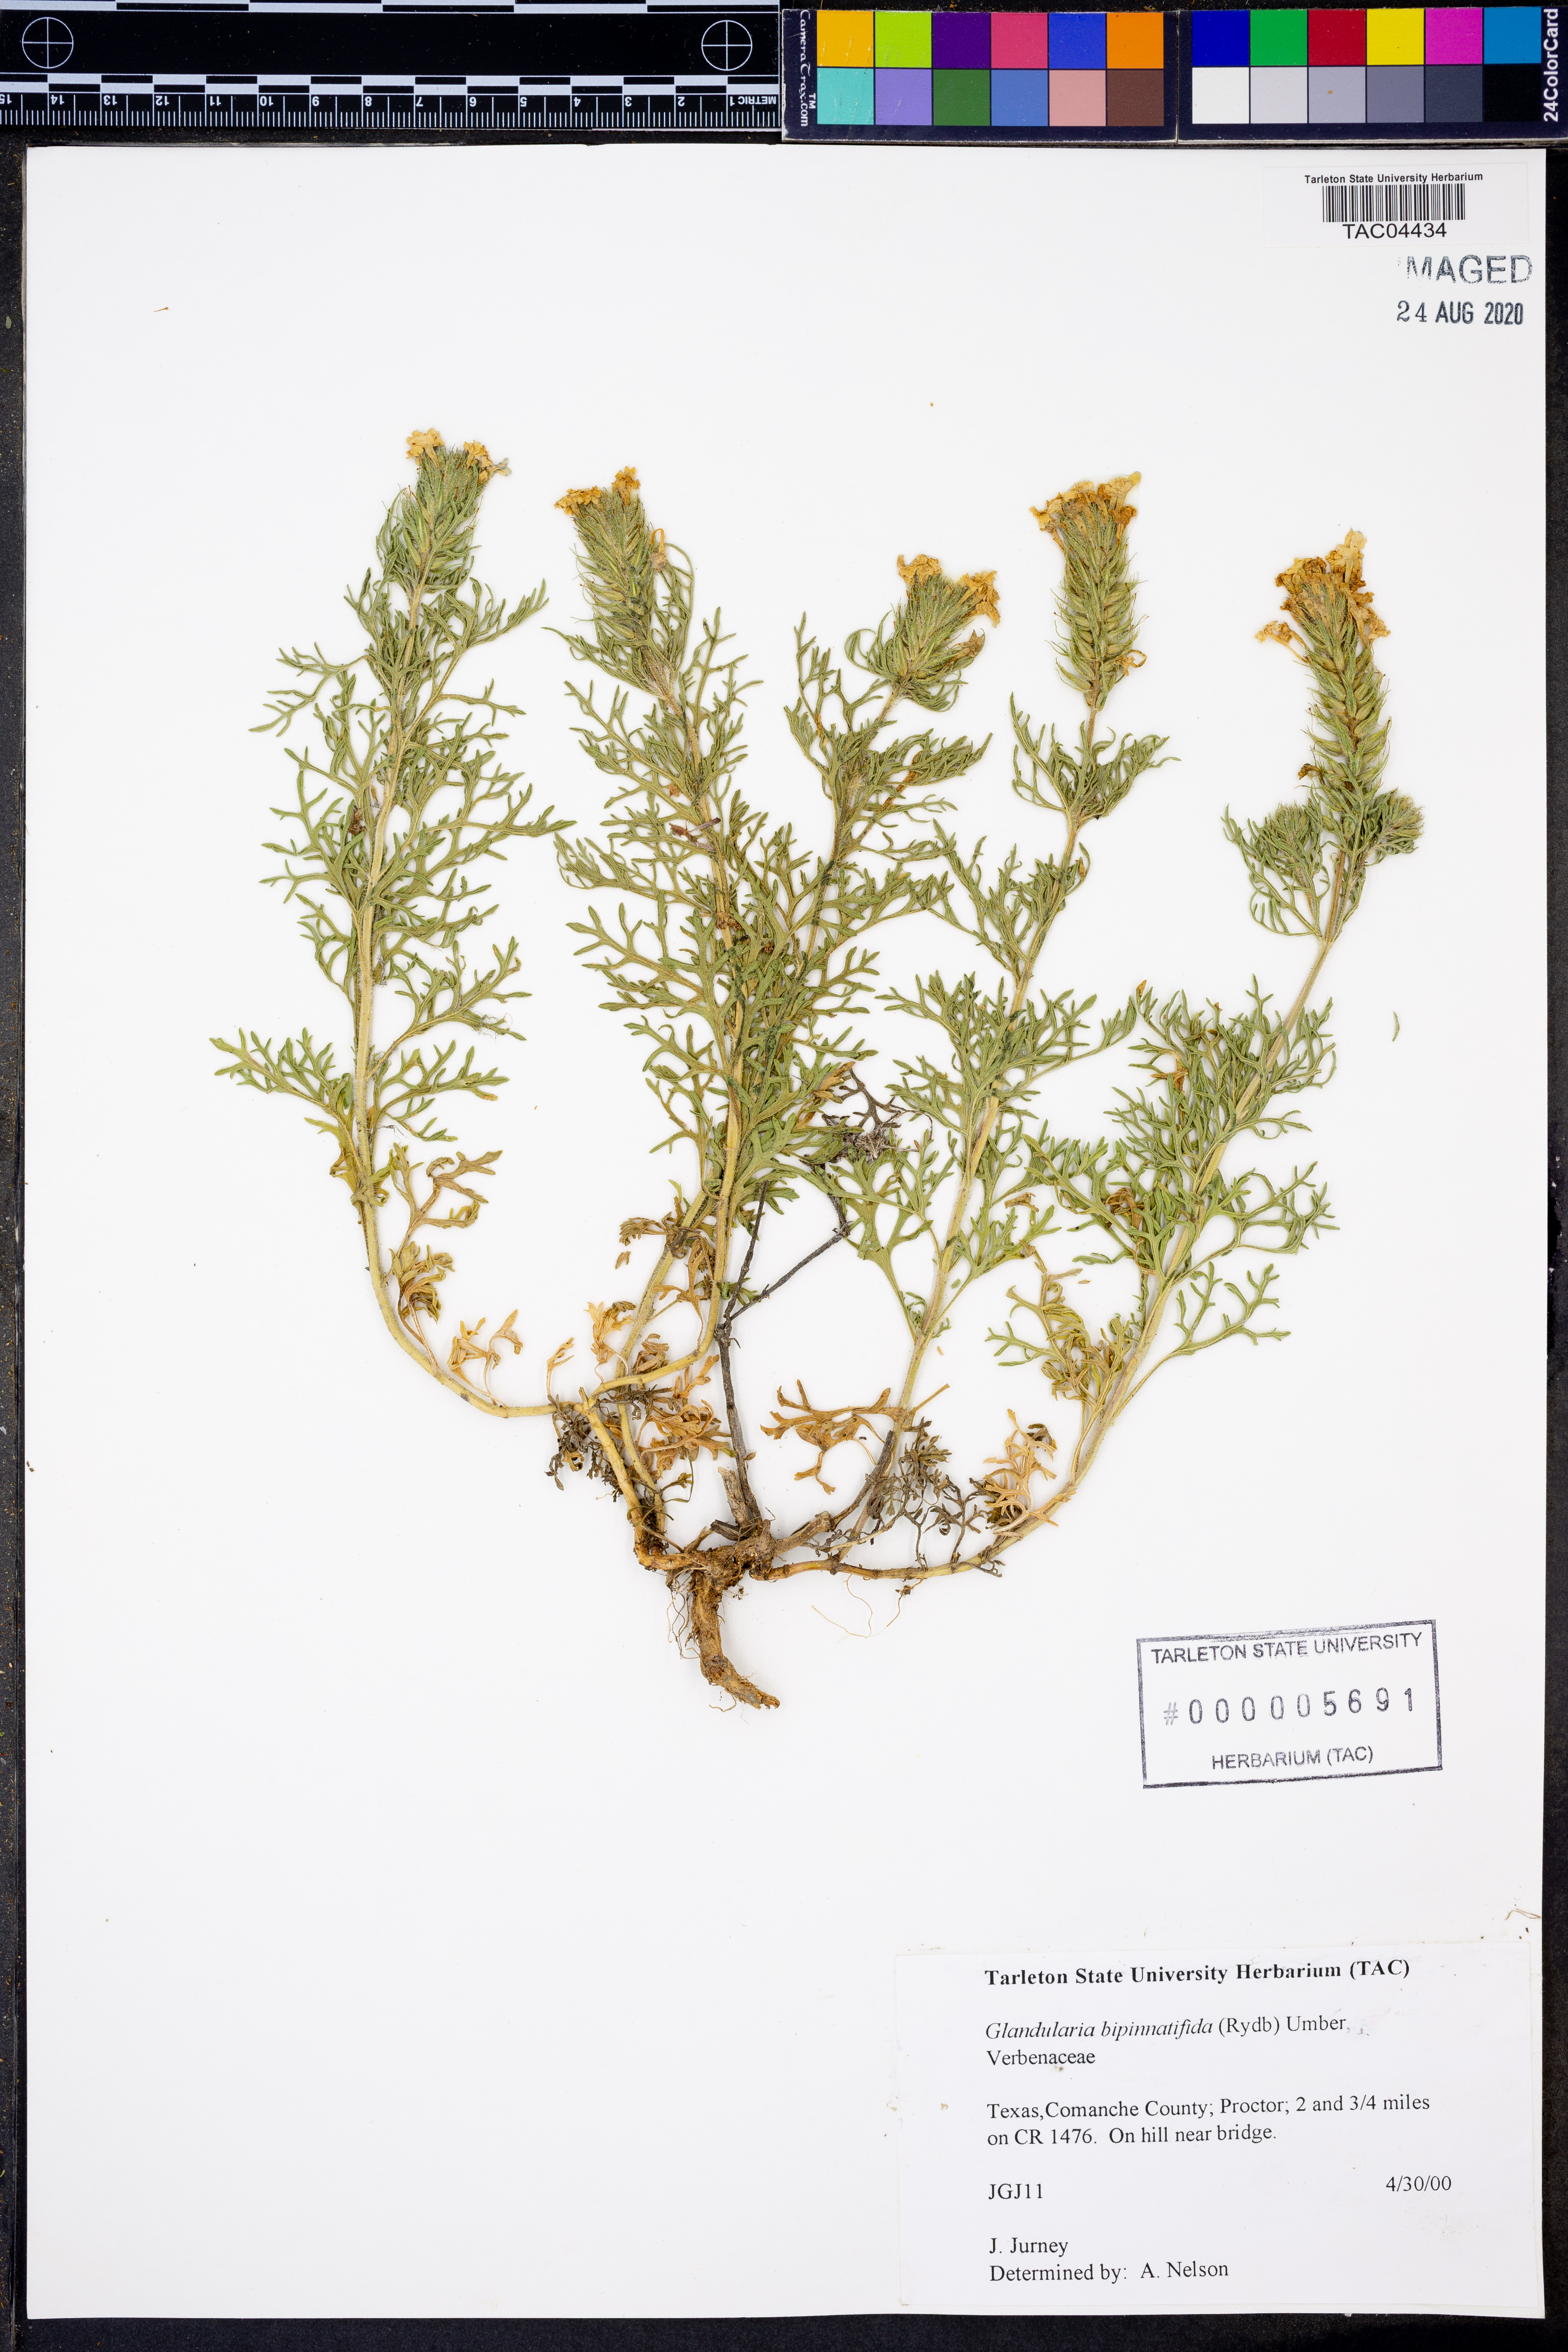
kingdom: Plantae
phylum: Tracheophyta
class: Magnoliopsida
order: Lamiales
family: Verbenaceae
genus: Verbena
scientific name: Verbena bipinnatifida
